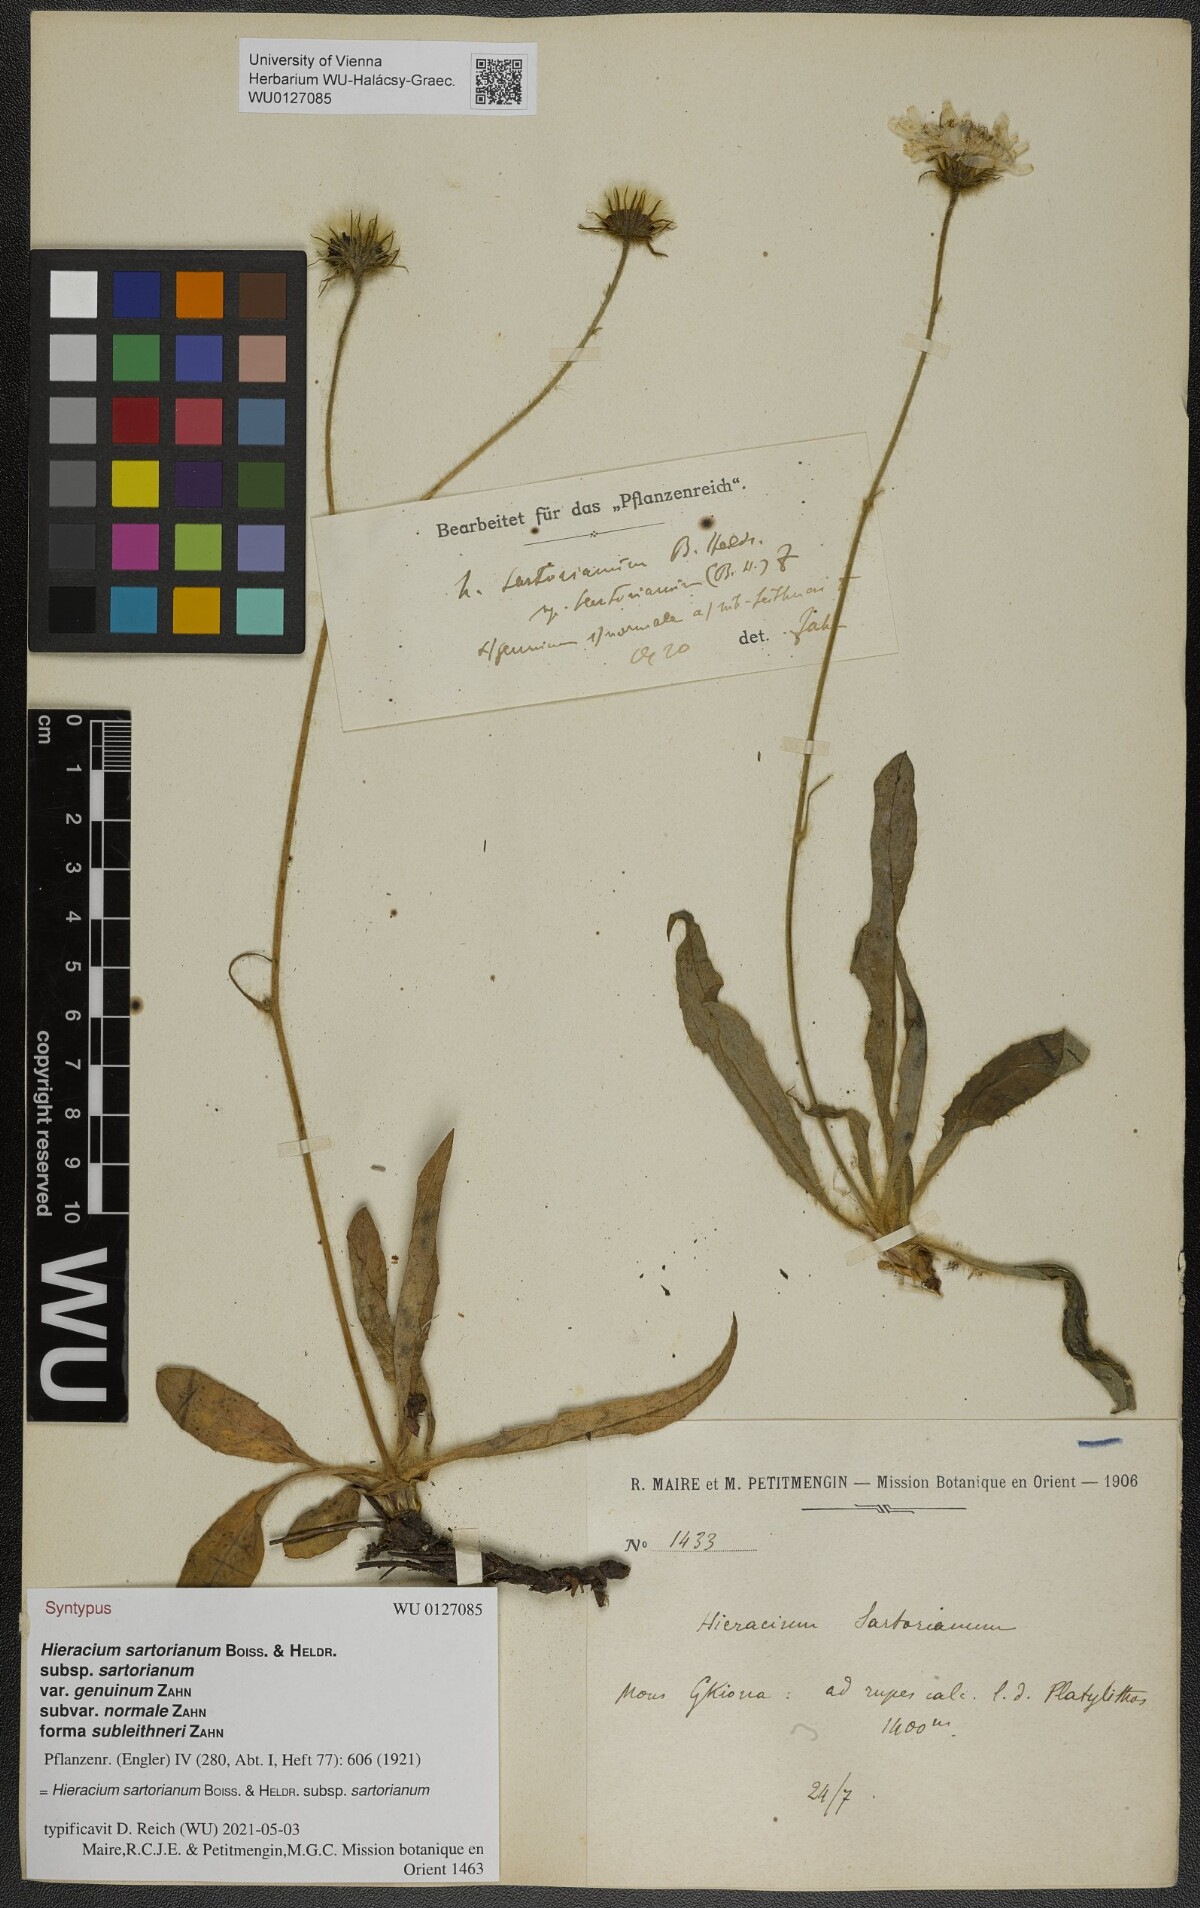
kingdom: Plantae
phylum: Tracheophyta
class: Magnoliopsida
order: Asterales
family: Asteraceae
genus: Hieracium
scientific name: Hieracium sartorianum
